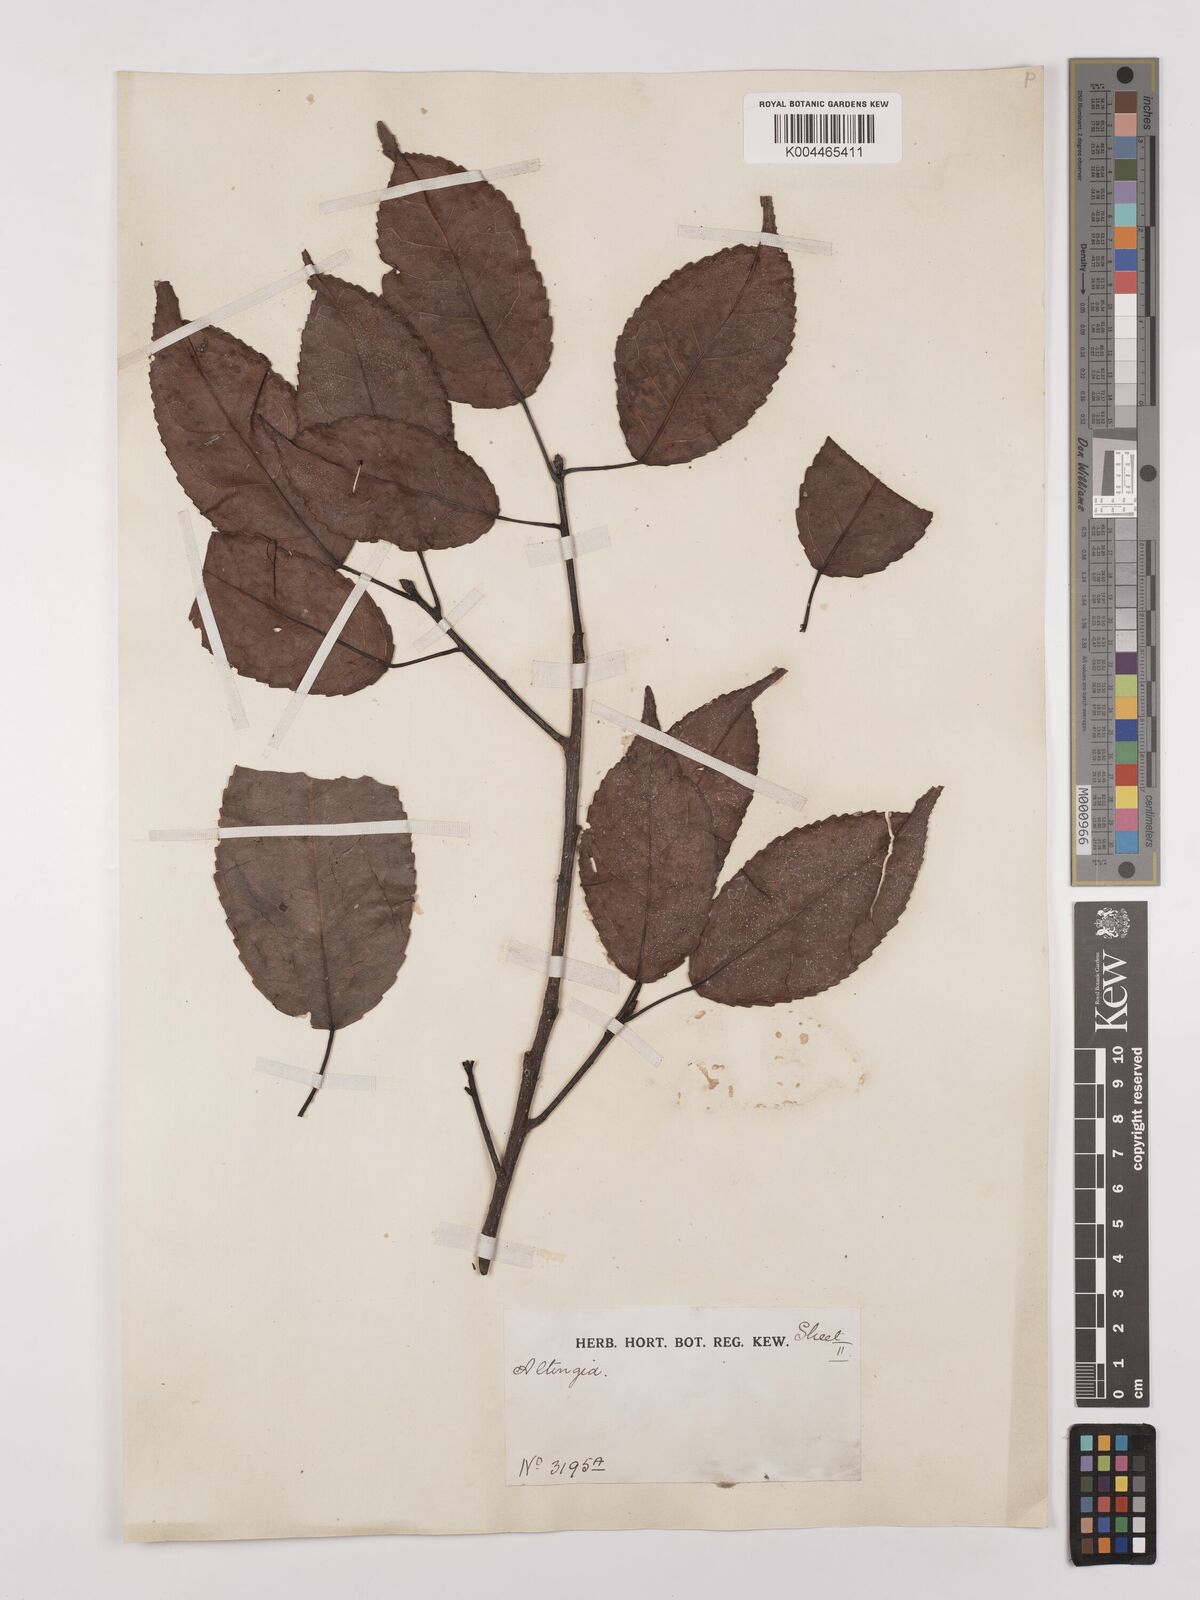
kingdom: Plantae
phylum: Tracheophyta
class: Magnoliopsida
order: Saxifragales
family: Altingiaceae
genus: Liquidambar
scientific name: Liquidambar excelsa
